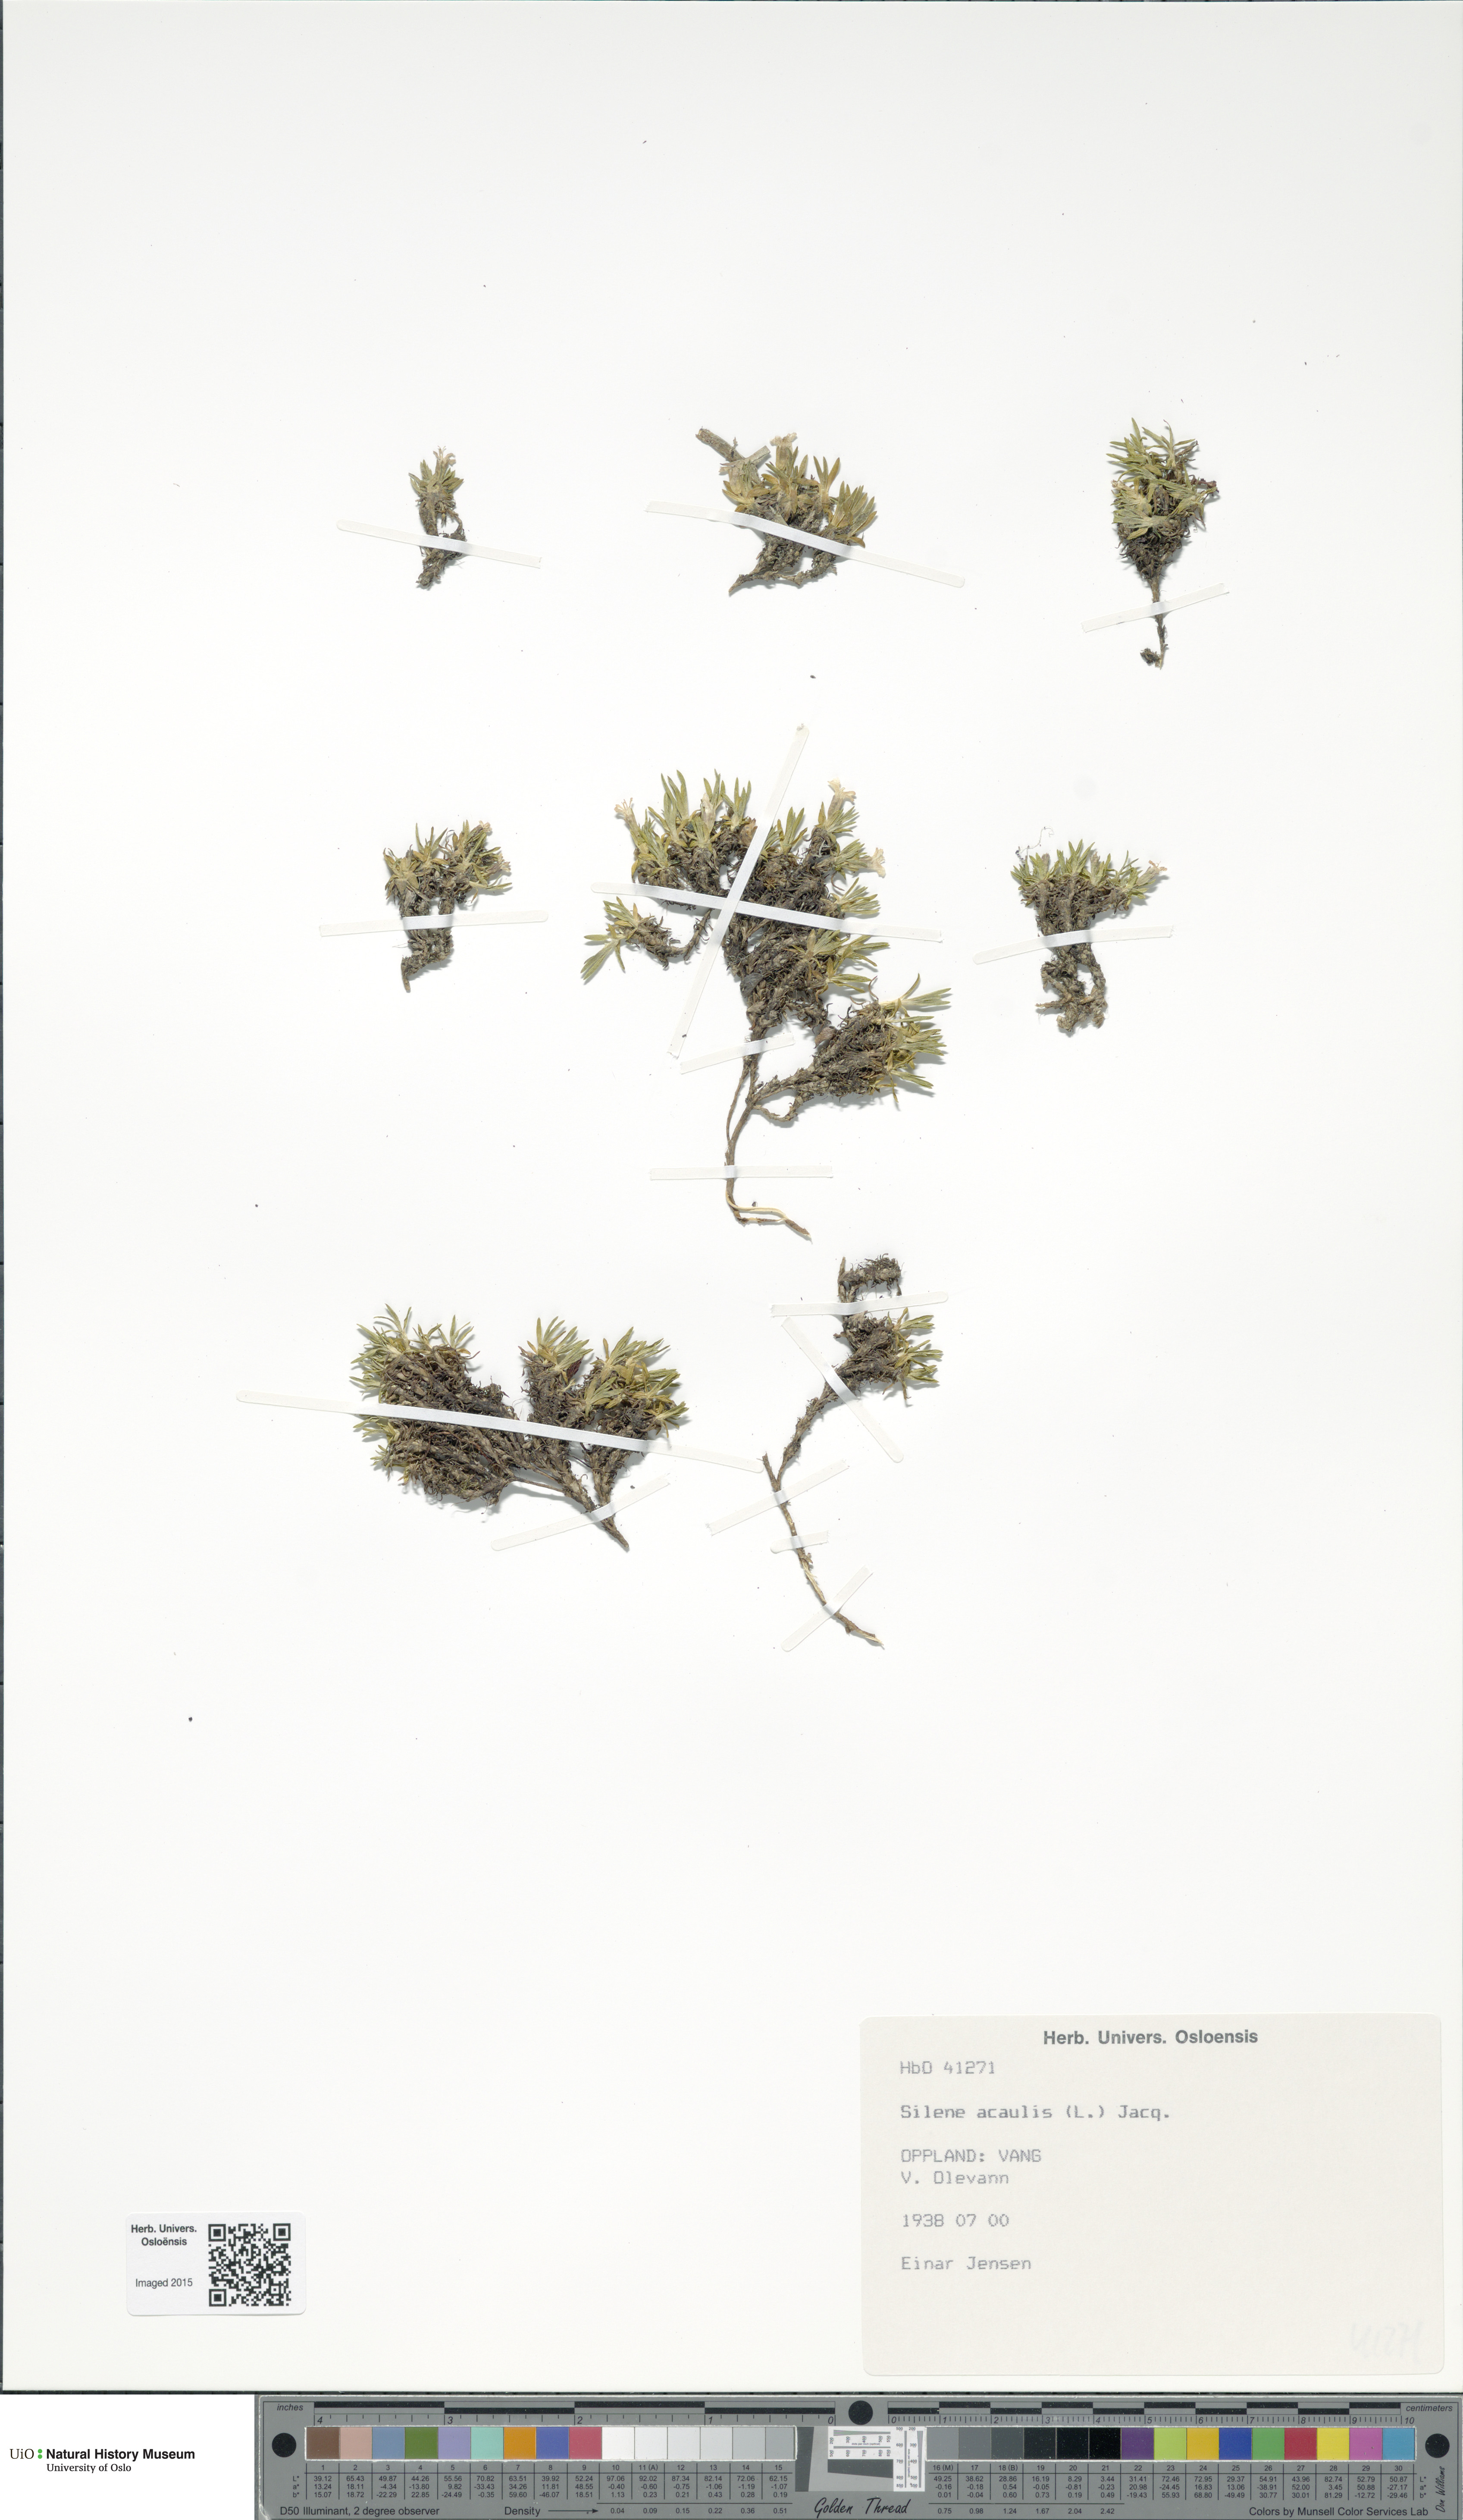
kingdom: Plantae
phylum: Tracheophyta
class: Magnoliopsida
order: Caryophyllales
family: Caryophyllaceae
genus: Silene
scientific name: Silene acaulis
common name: Moss campion
